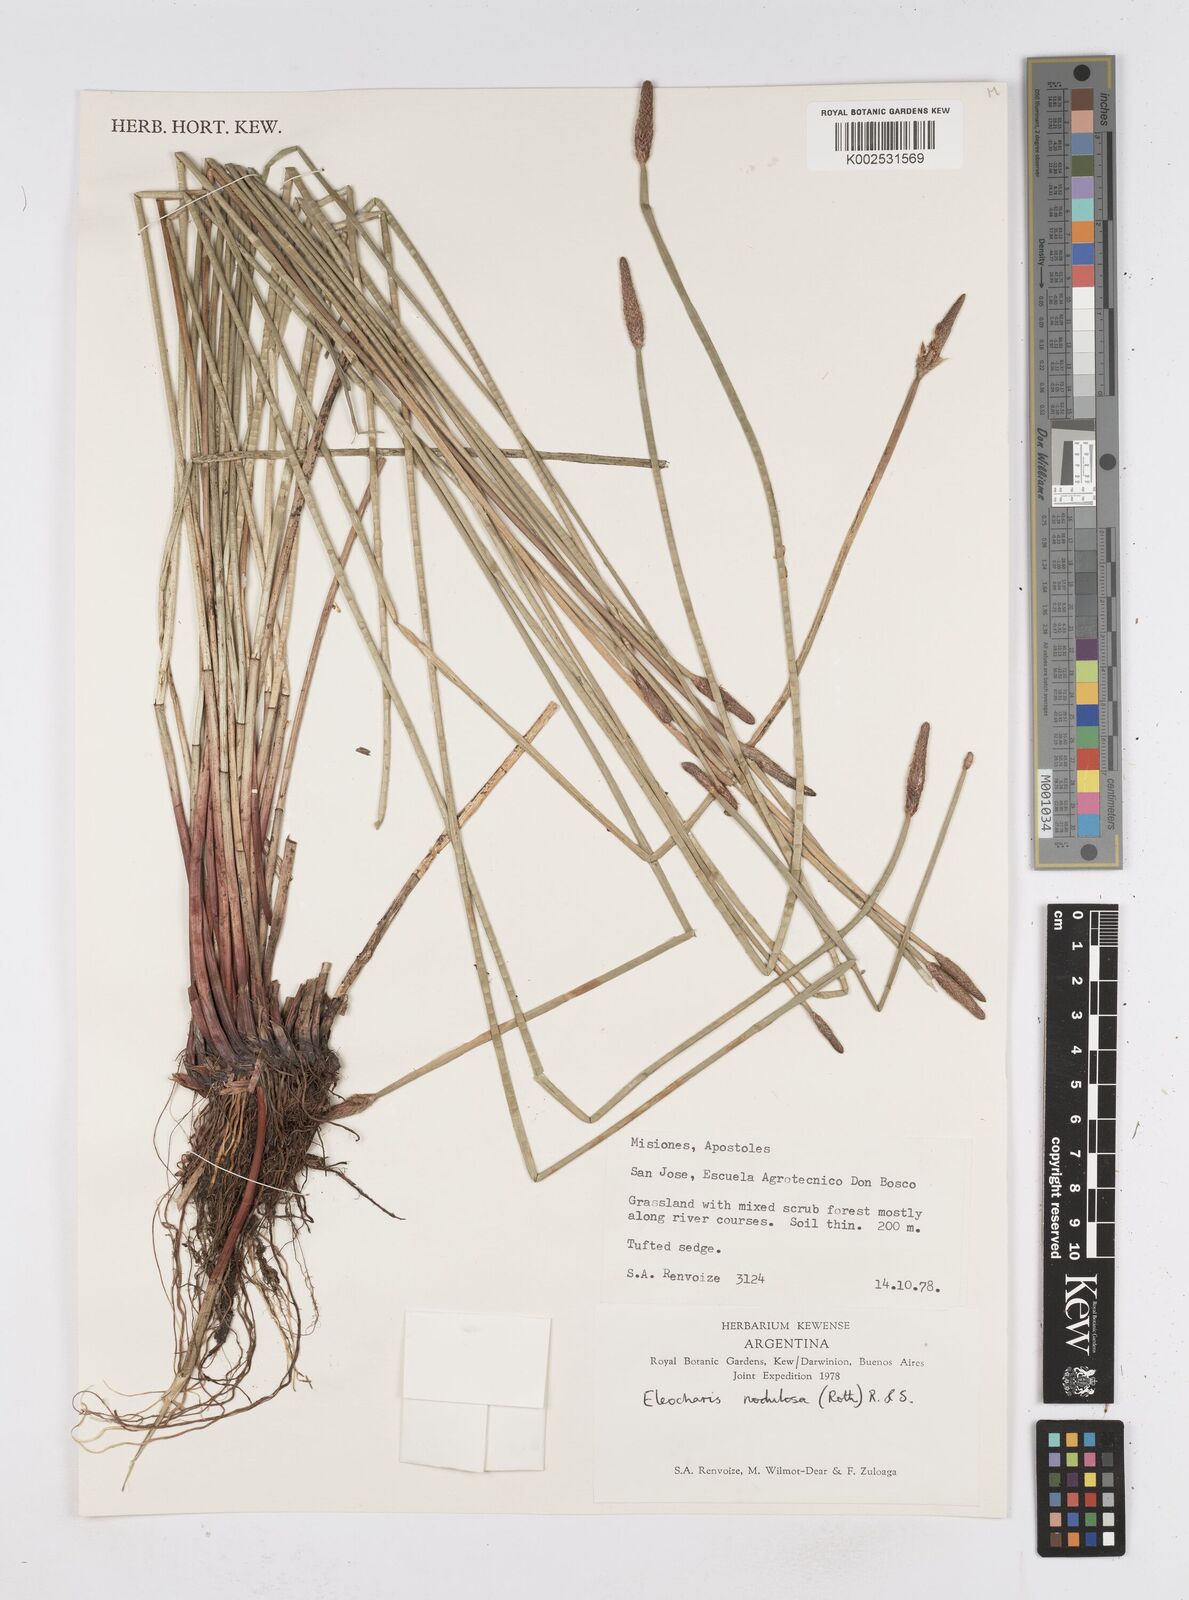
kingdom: Plantae
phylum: Tracheophyta
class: Liliopsida
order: Poales
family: Cyperaceae
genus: Eleocharis
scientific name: Eleocharis montana
